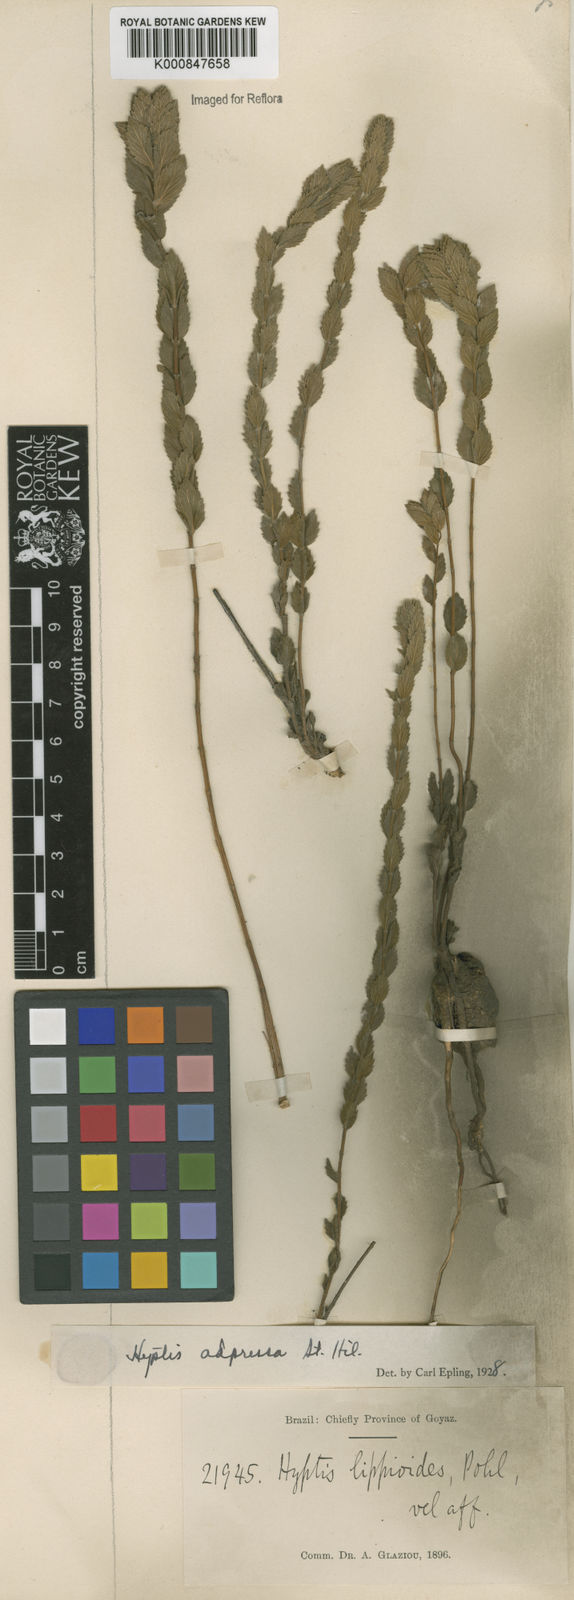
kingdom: Plantae
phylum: Tracheophyta
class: Magnoliopsida
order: Lamiales
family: Lamiaceae
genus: Cyanocephalus
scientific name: Cyanocephalus adpressus
